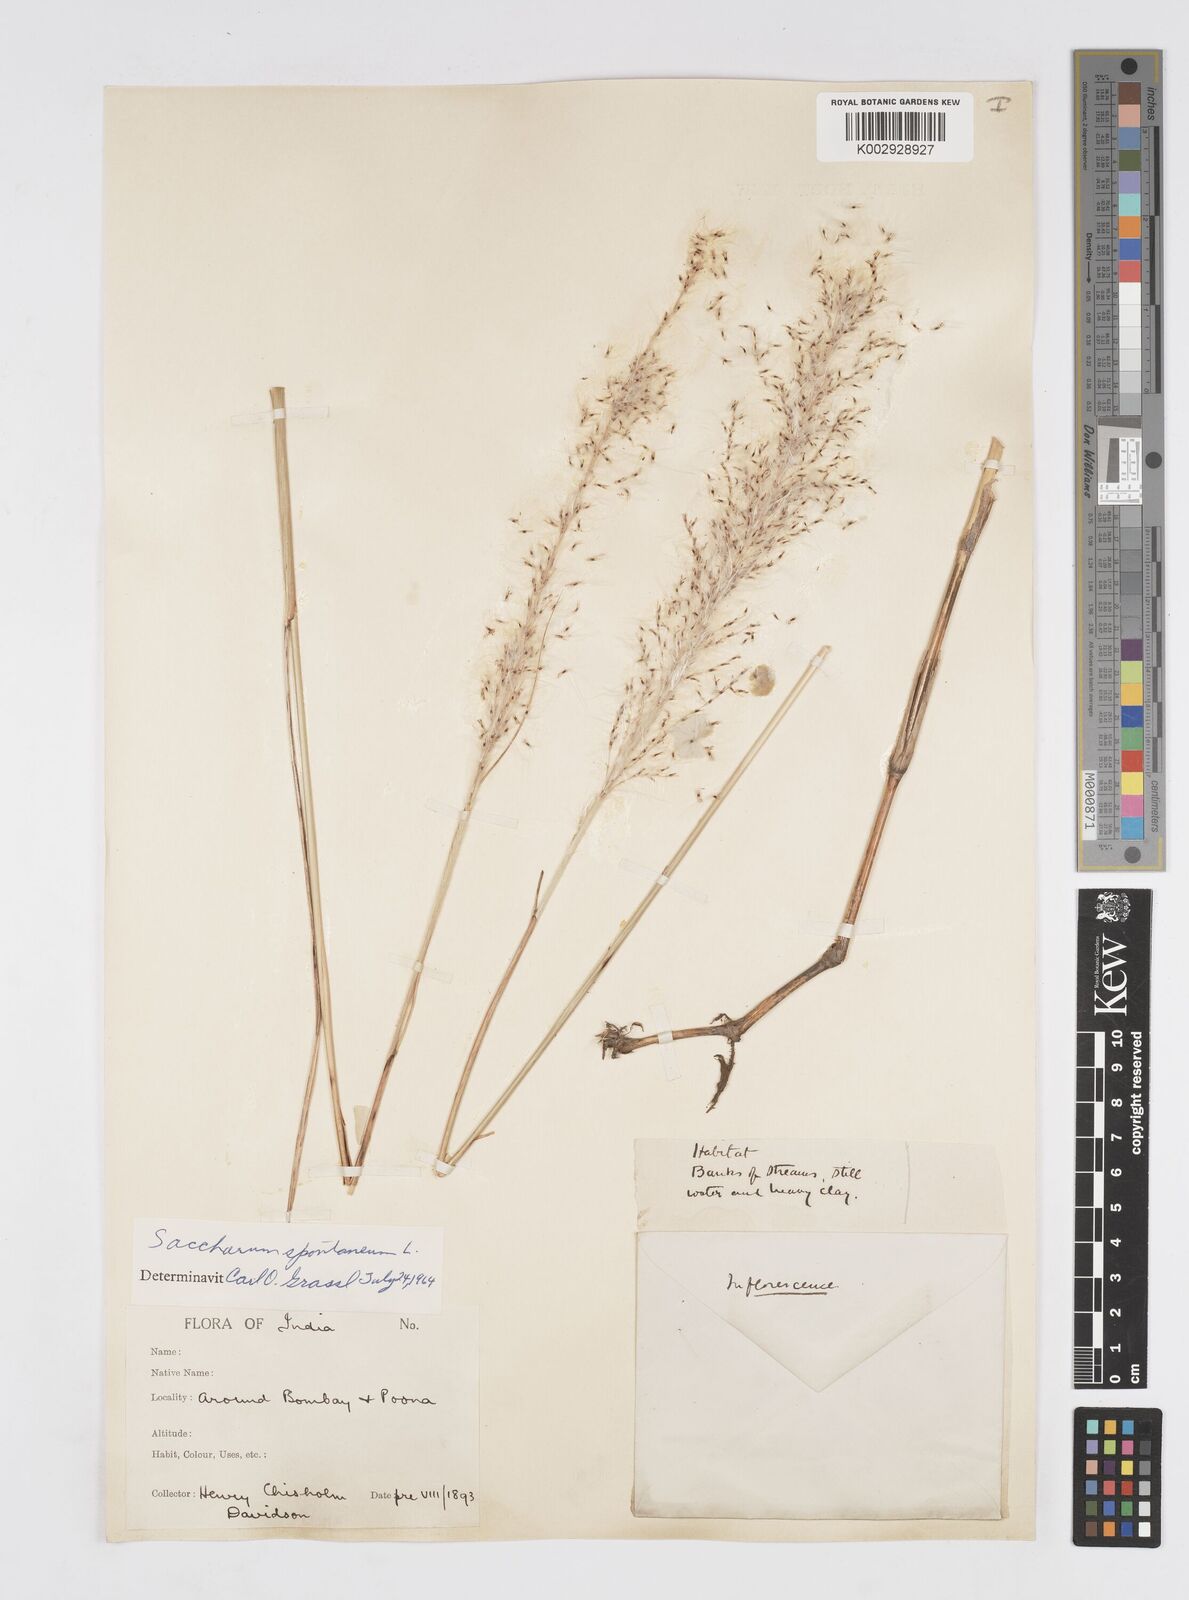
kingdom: Plantae
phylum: Tracheophyta
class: Liliopsida
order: Poales
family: Poaceae
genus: Saccharum
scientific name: Saccharum spontaneum
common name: Wild sugarcane
